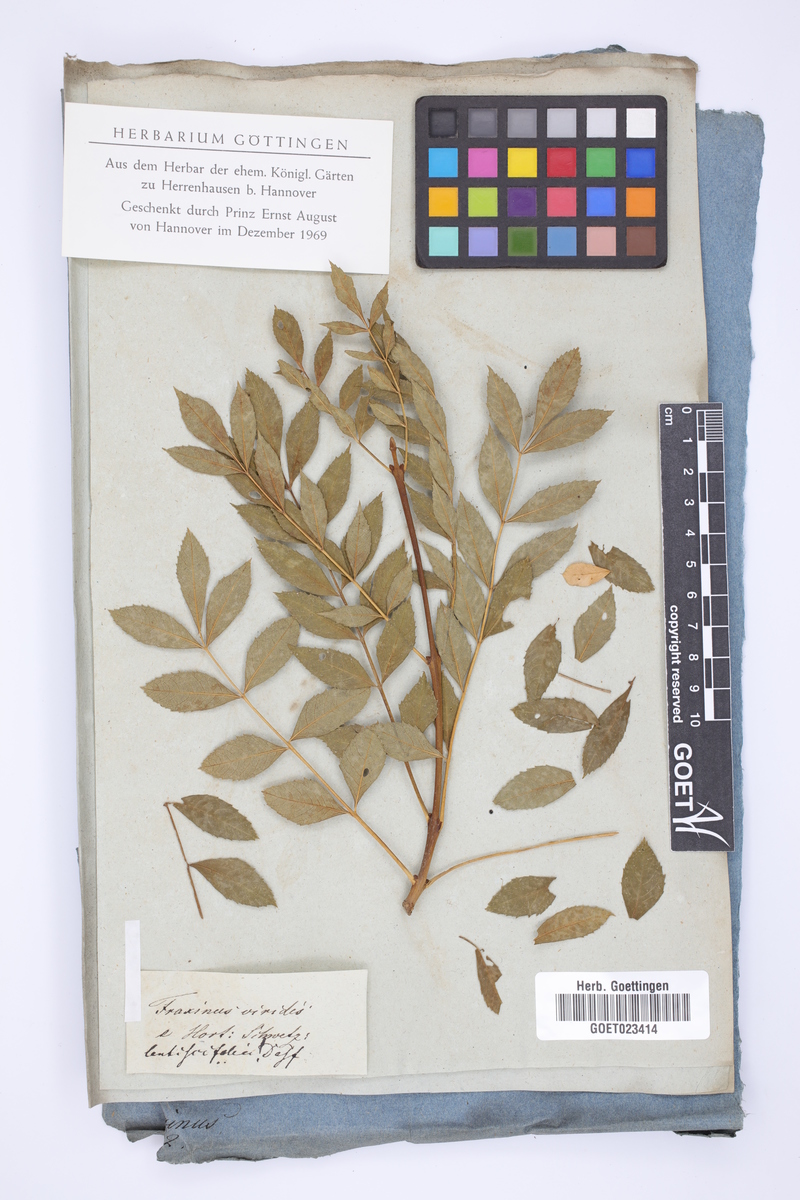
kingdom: Plantae
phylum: Tracheophyta
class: Magnoliopsida
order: Lamiales
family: Oleaceae
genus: Fraxinus
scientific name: Fraxinus americana
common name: White ash
